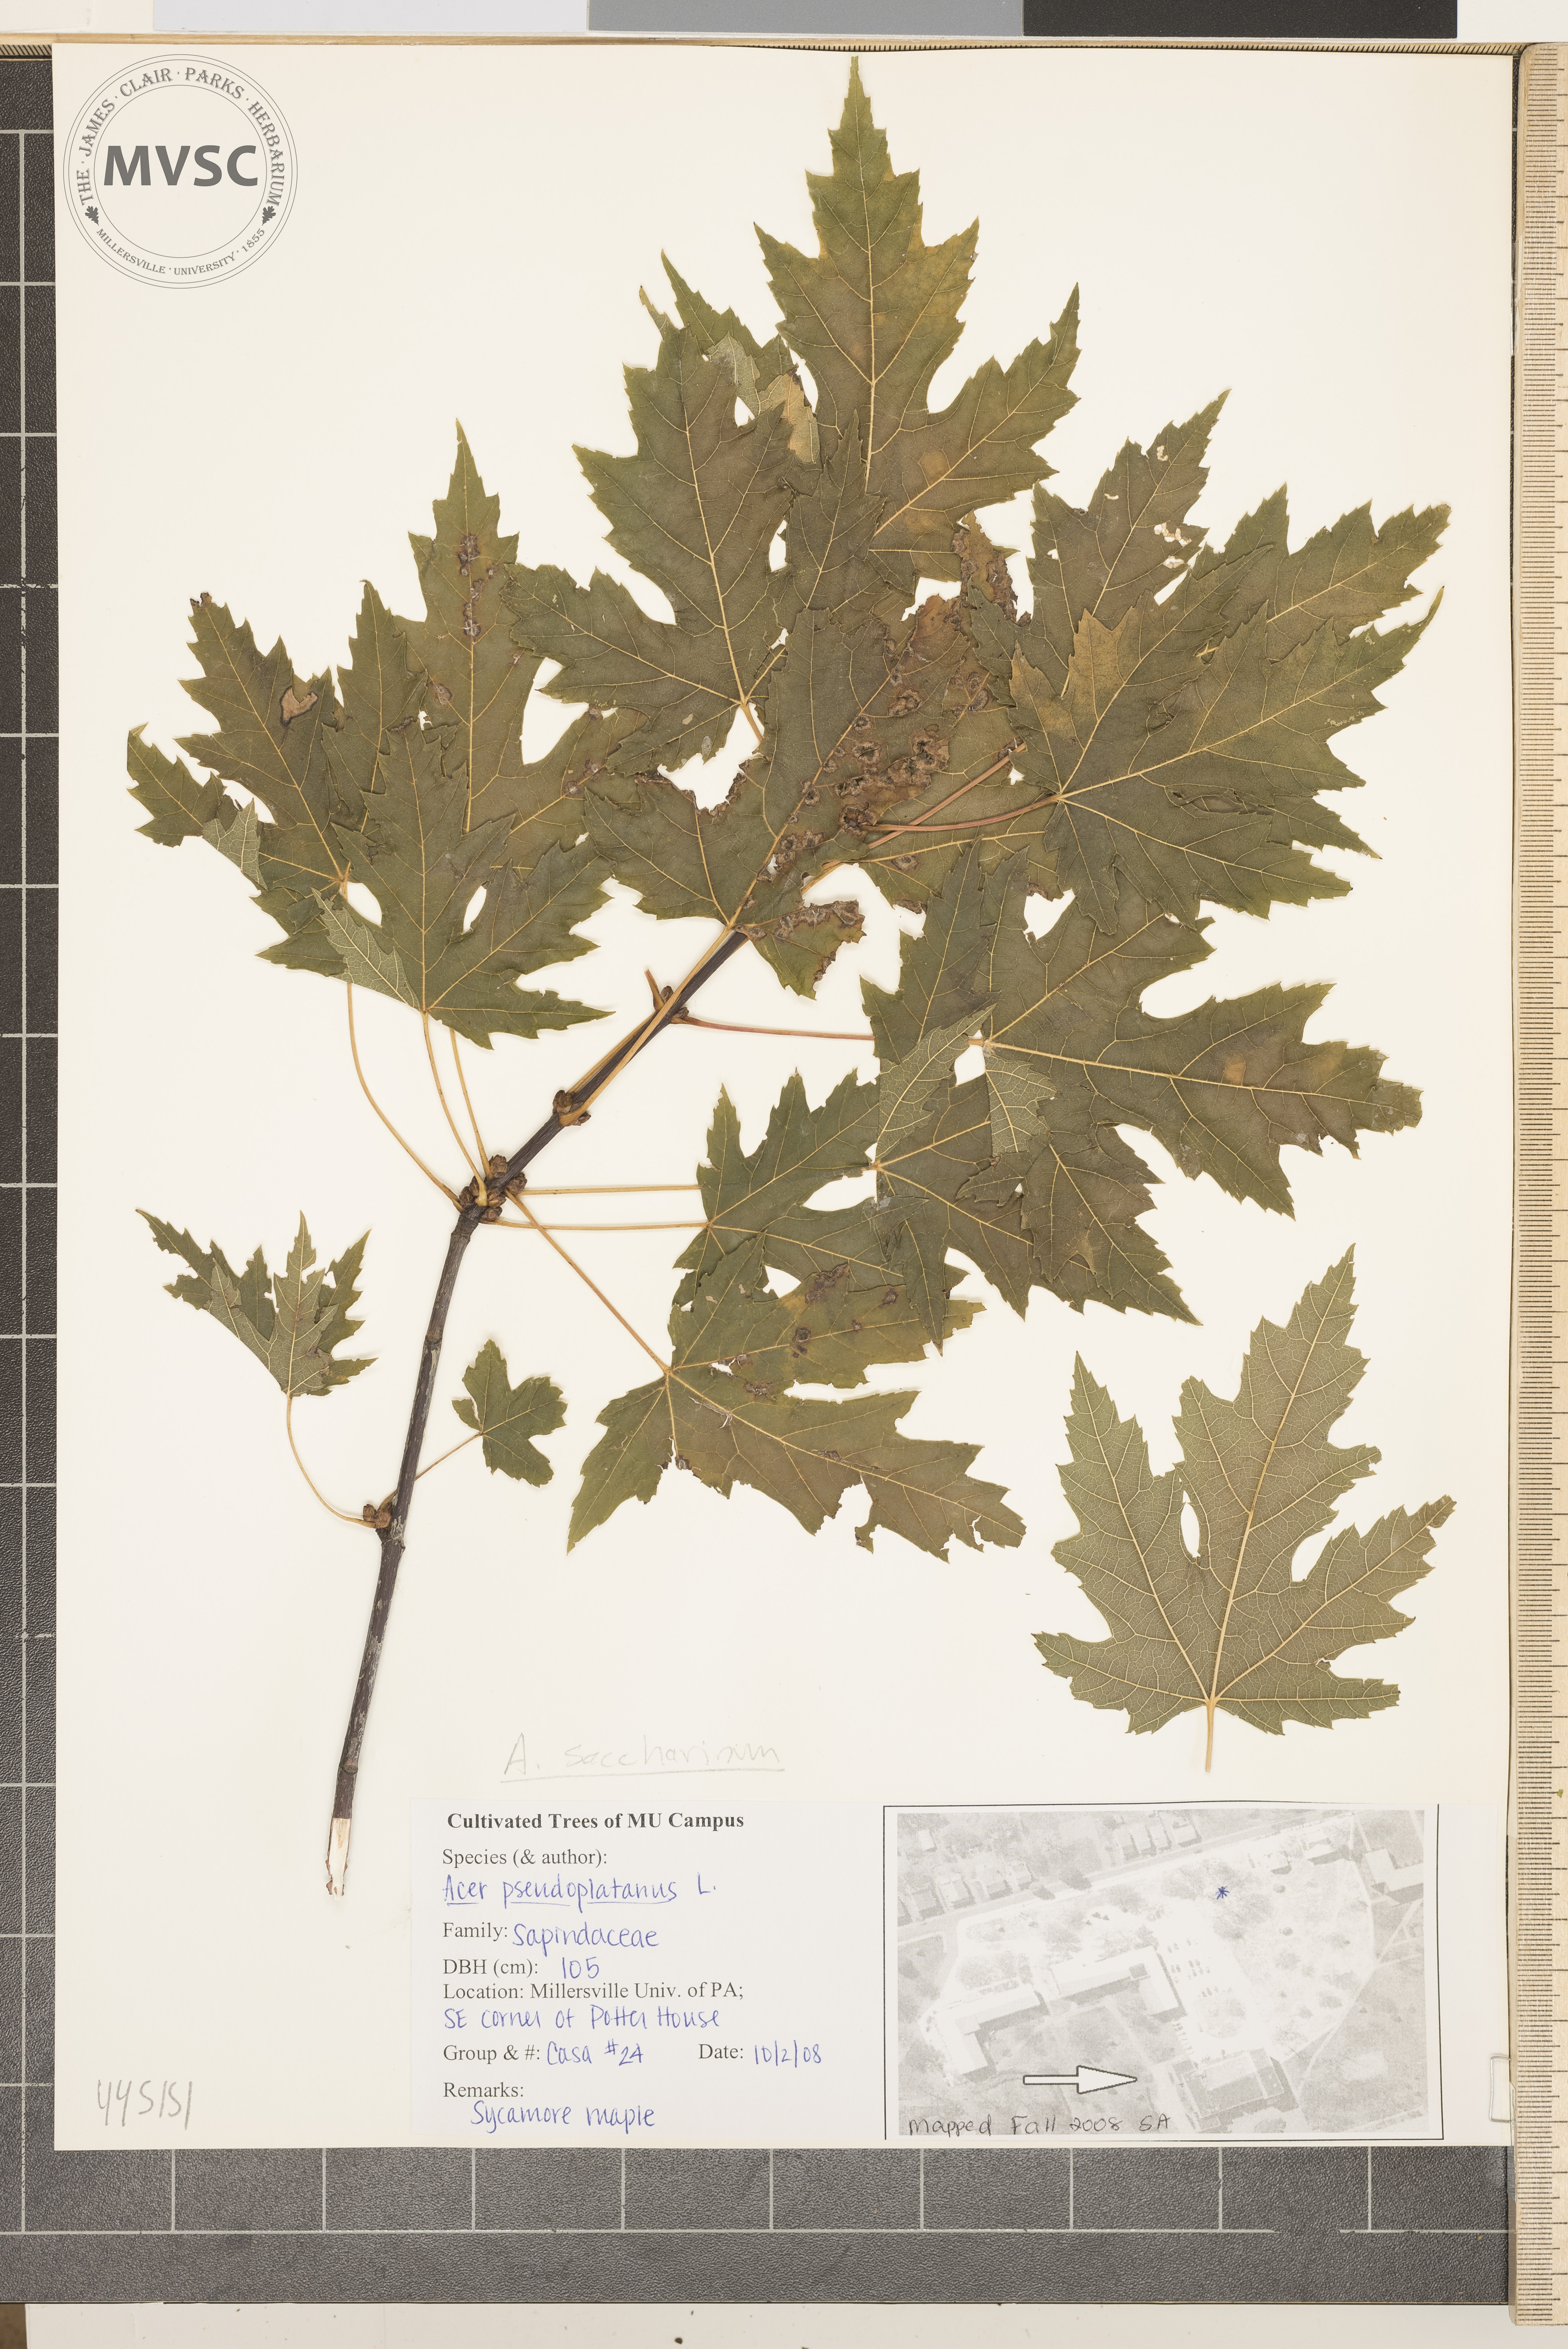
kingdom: Plantae
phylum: Tracheophyta
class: Magnoliopsida
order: Sapindales
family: Sapindaceae
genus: Acer
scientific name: Acer saccharinum
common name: Silver maple
